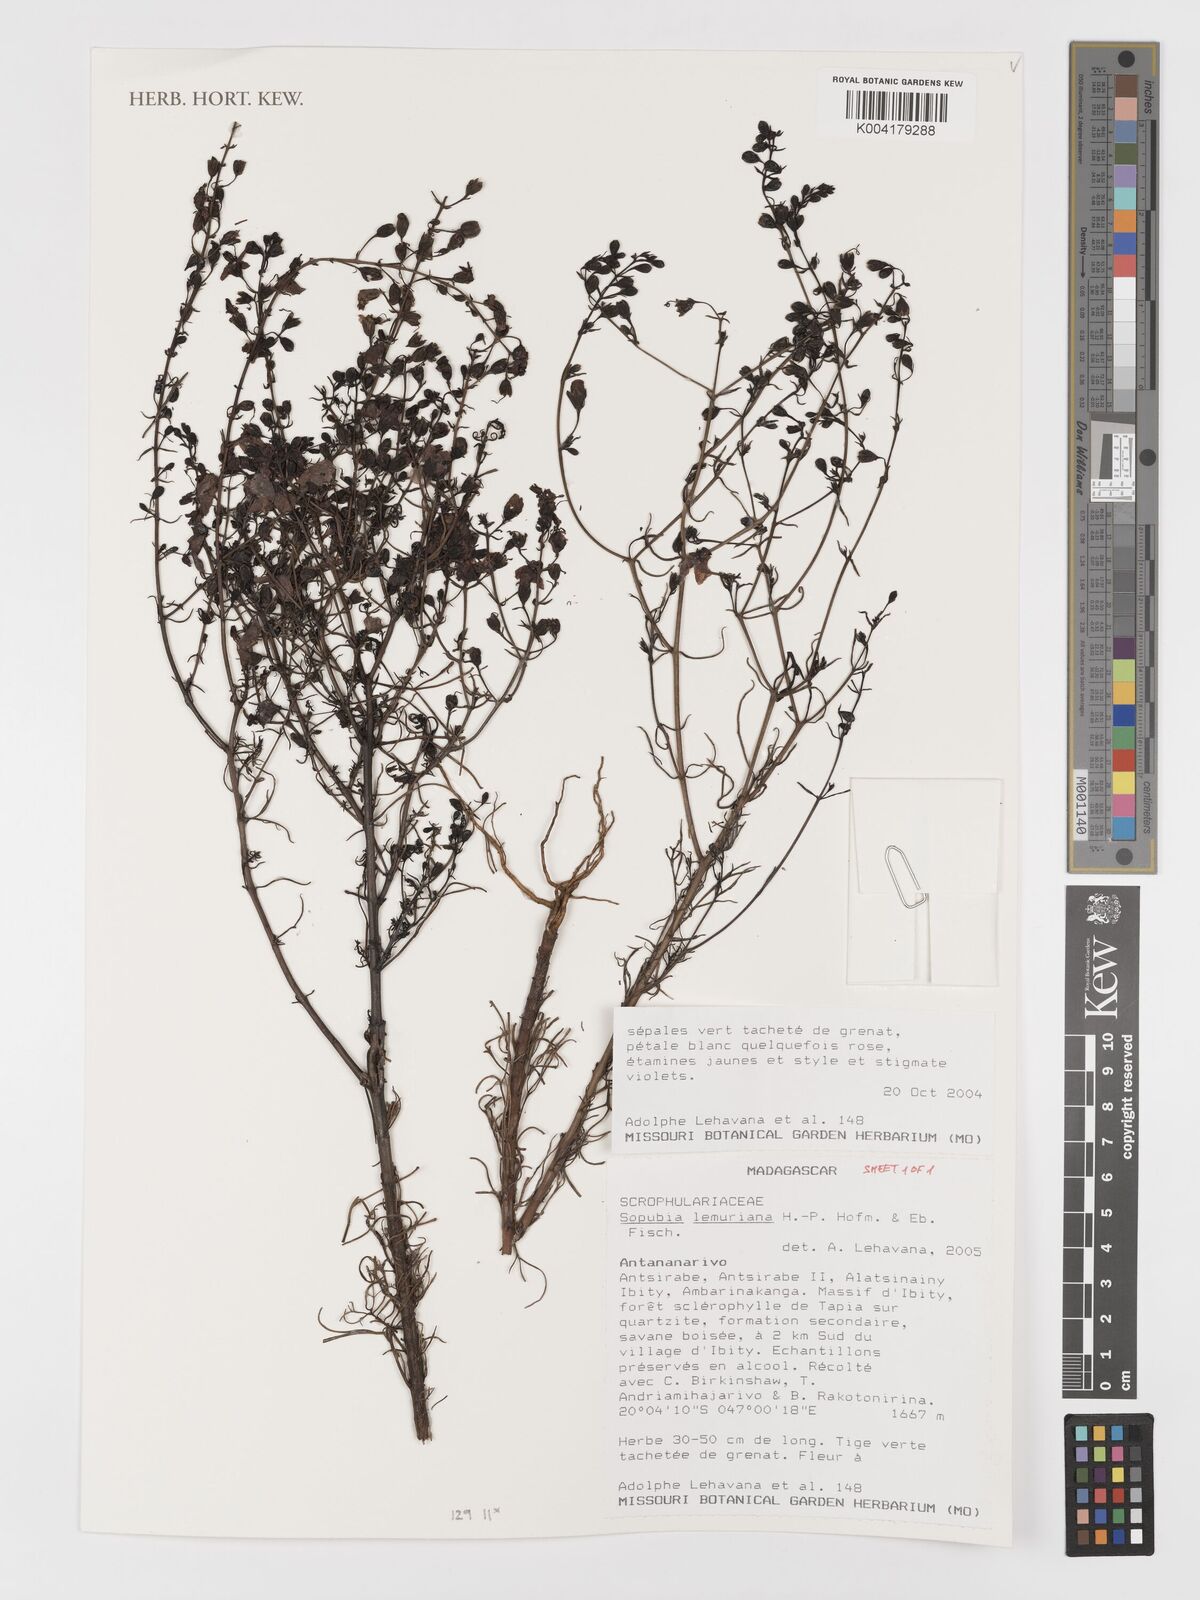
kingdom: Plantae
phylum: Tracheophyta
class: Magnoliopsida
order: Lamiales
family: Orobanchaceae
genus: Sopubia
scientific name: Sopubia lemuriana
